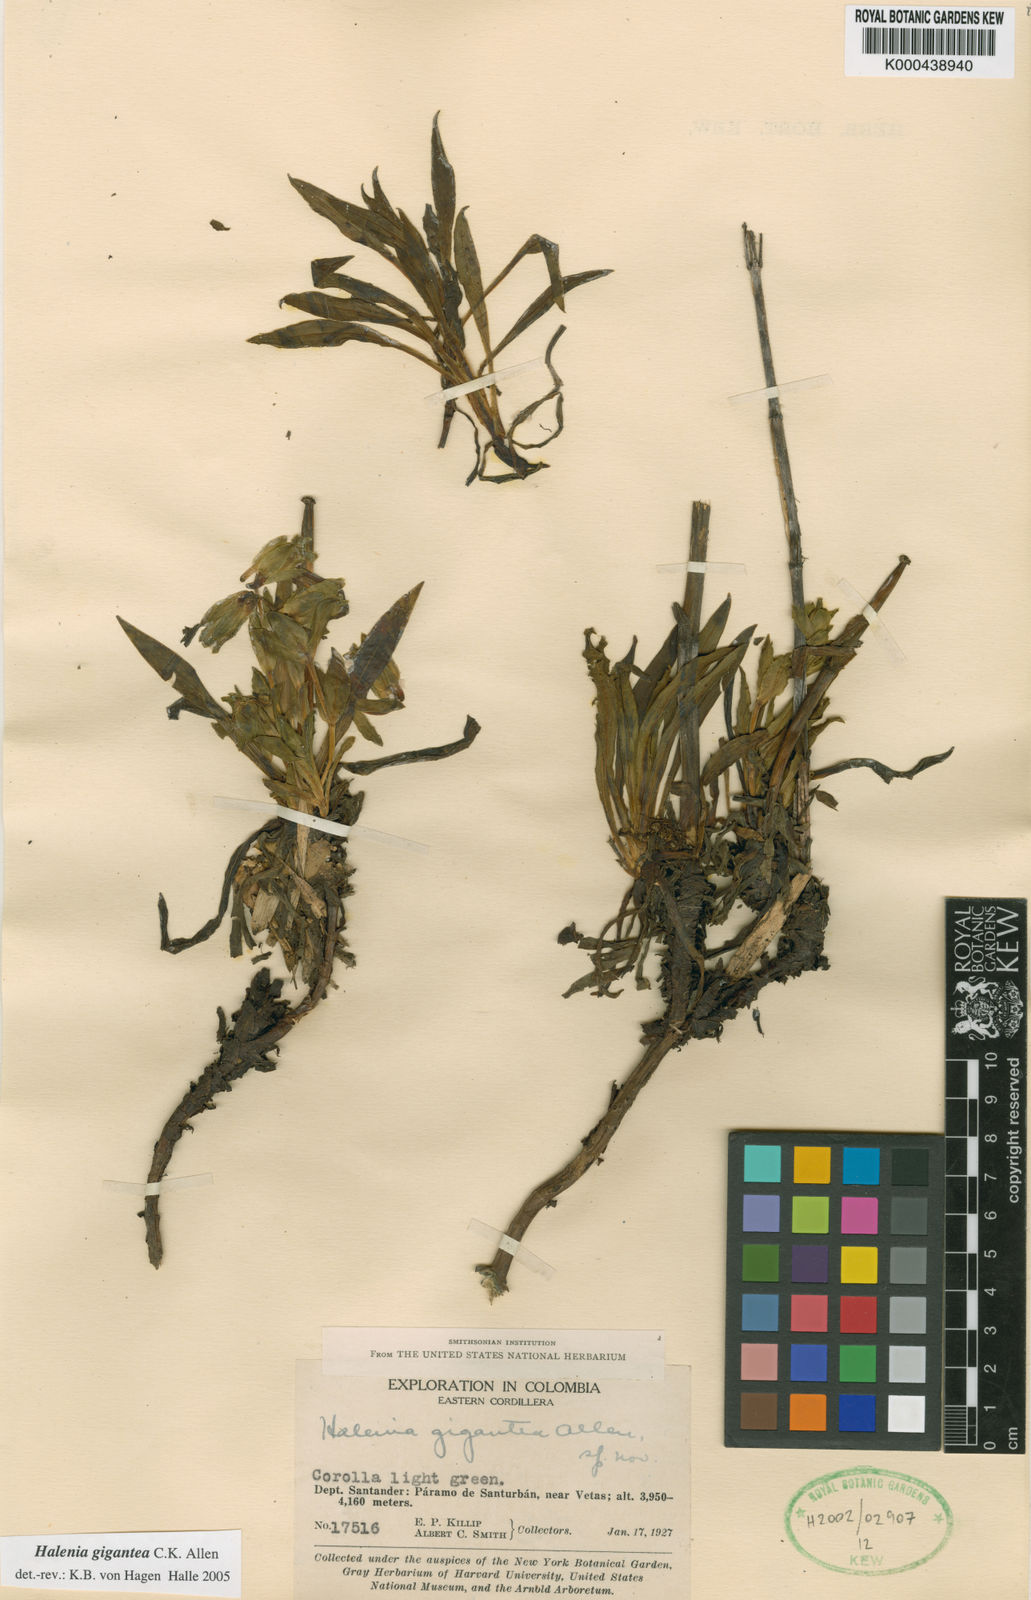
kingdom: Plantae
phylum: Tracheophyta
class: Magnoliopsida
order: Gentianales
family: Gentianaceae
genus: Halenia
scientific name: Halenia gigantea
